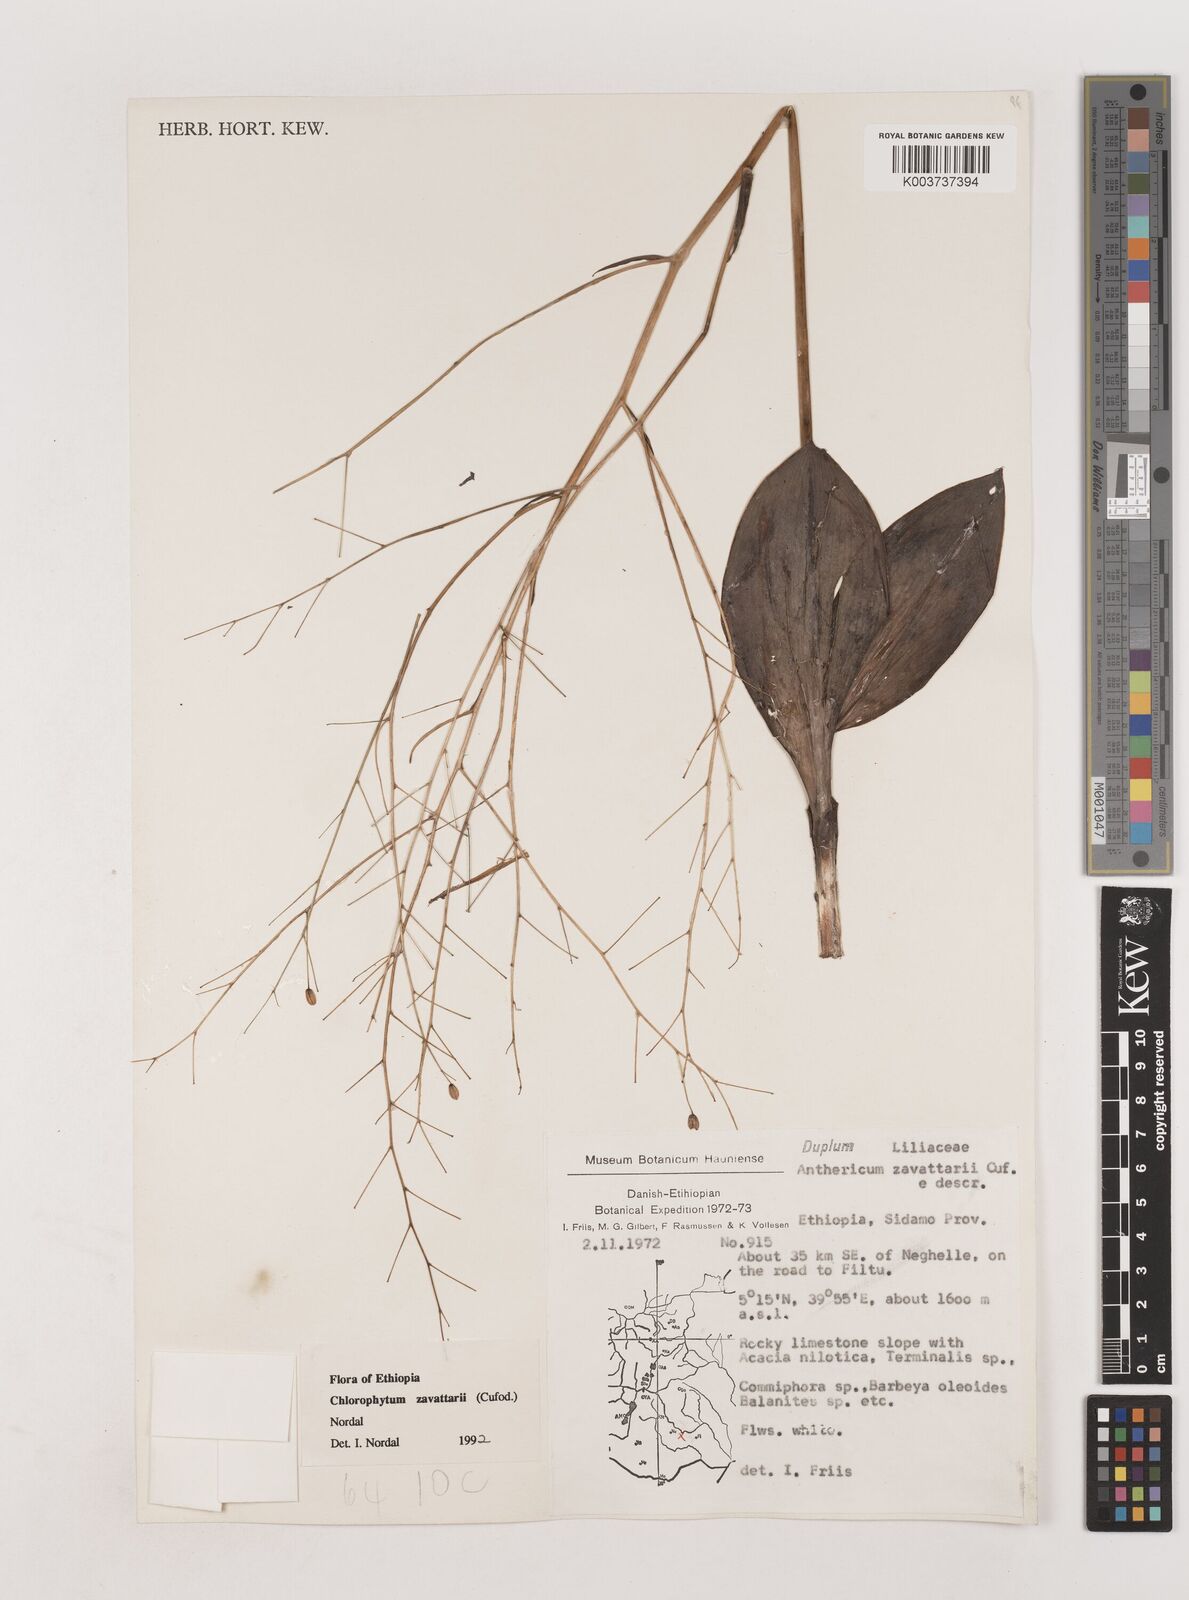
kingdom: Plantae
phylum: Tracheophyta
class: Liliopsida
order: Asparagales
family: Asparagaceae
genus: Chlorophytum
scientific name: Chlorophytum zavattarii
